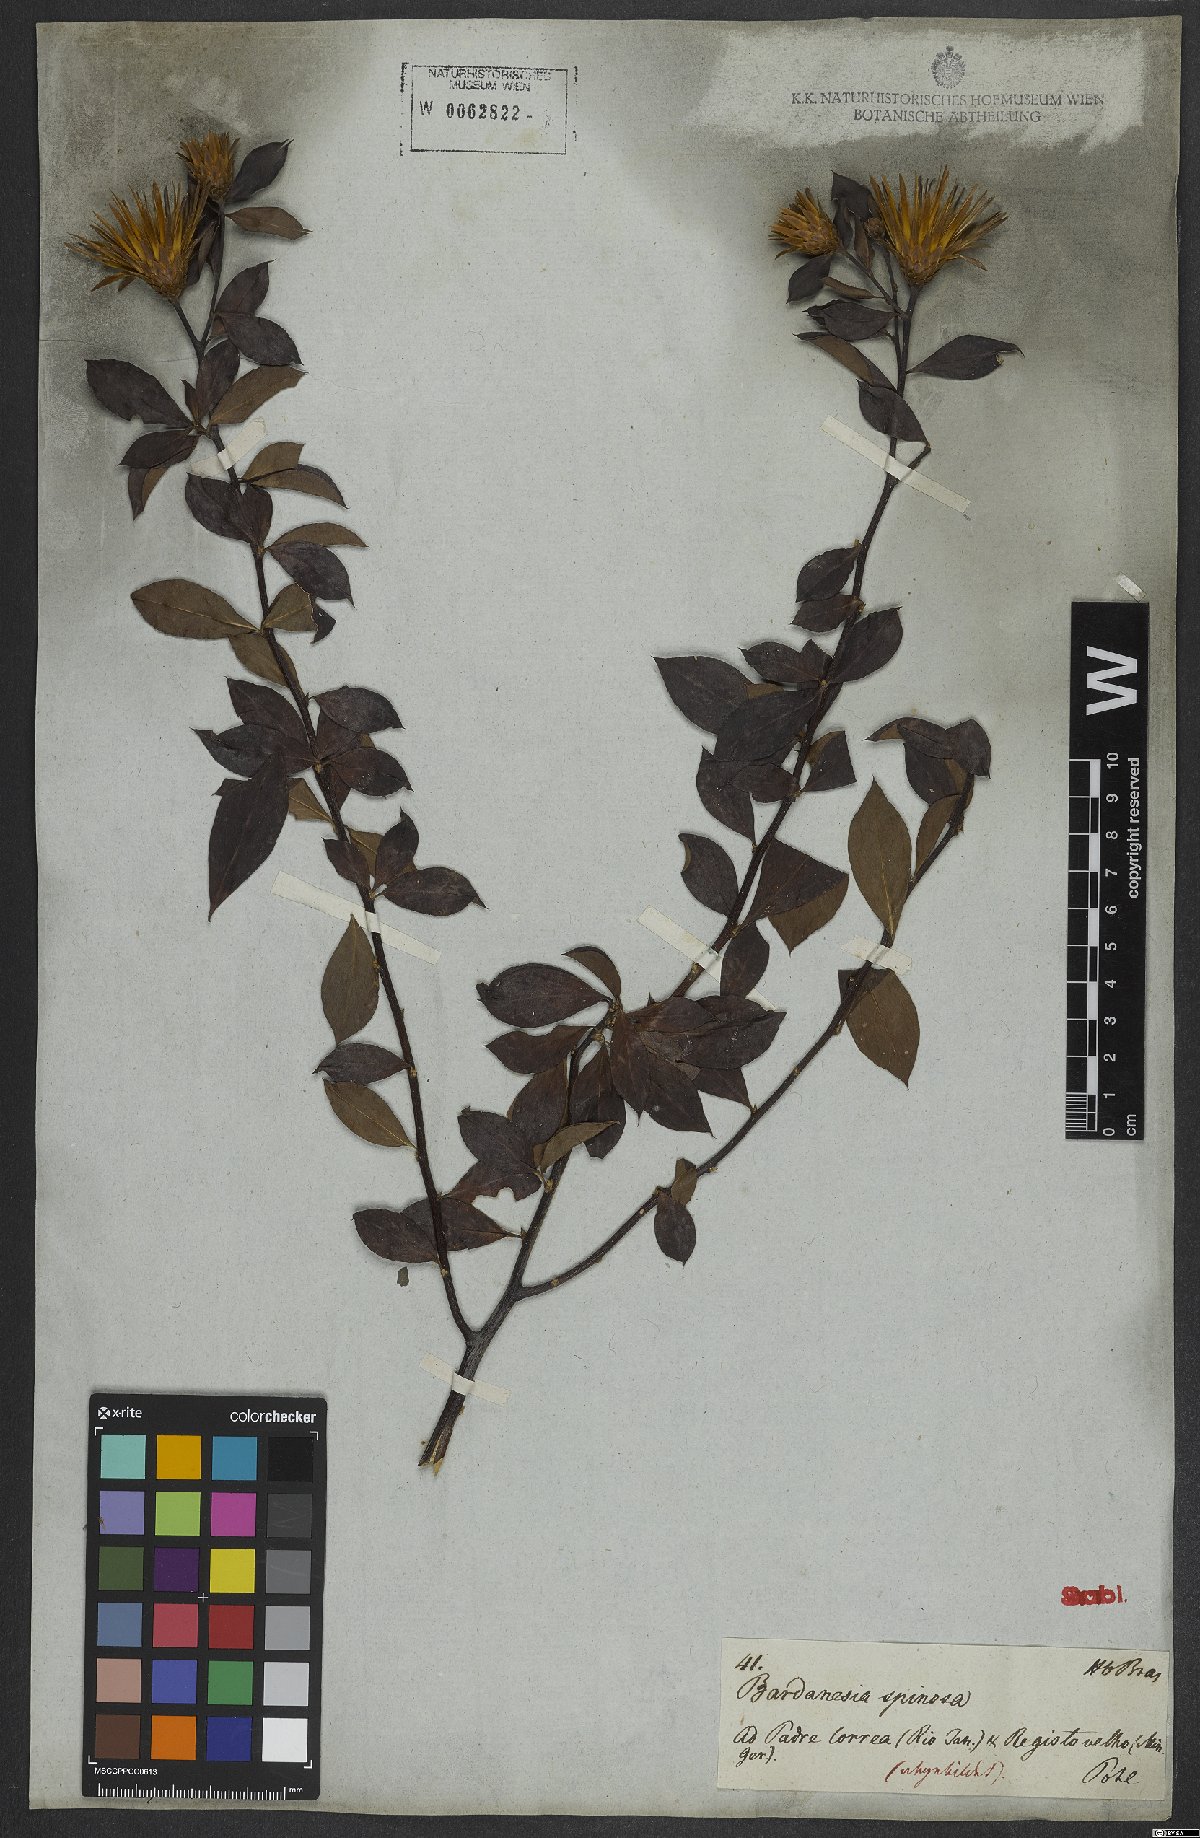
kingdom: Plantae
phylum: Tracheophyta
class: Magnoliopsida
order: Asterales
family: Asteraceae
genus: Barnadesia
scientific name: Barnadesia caryophylla
